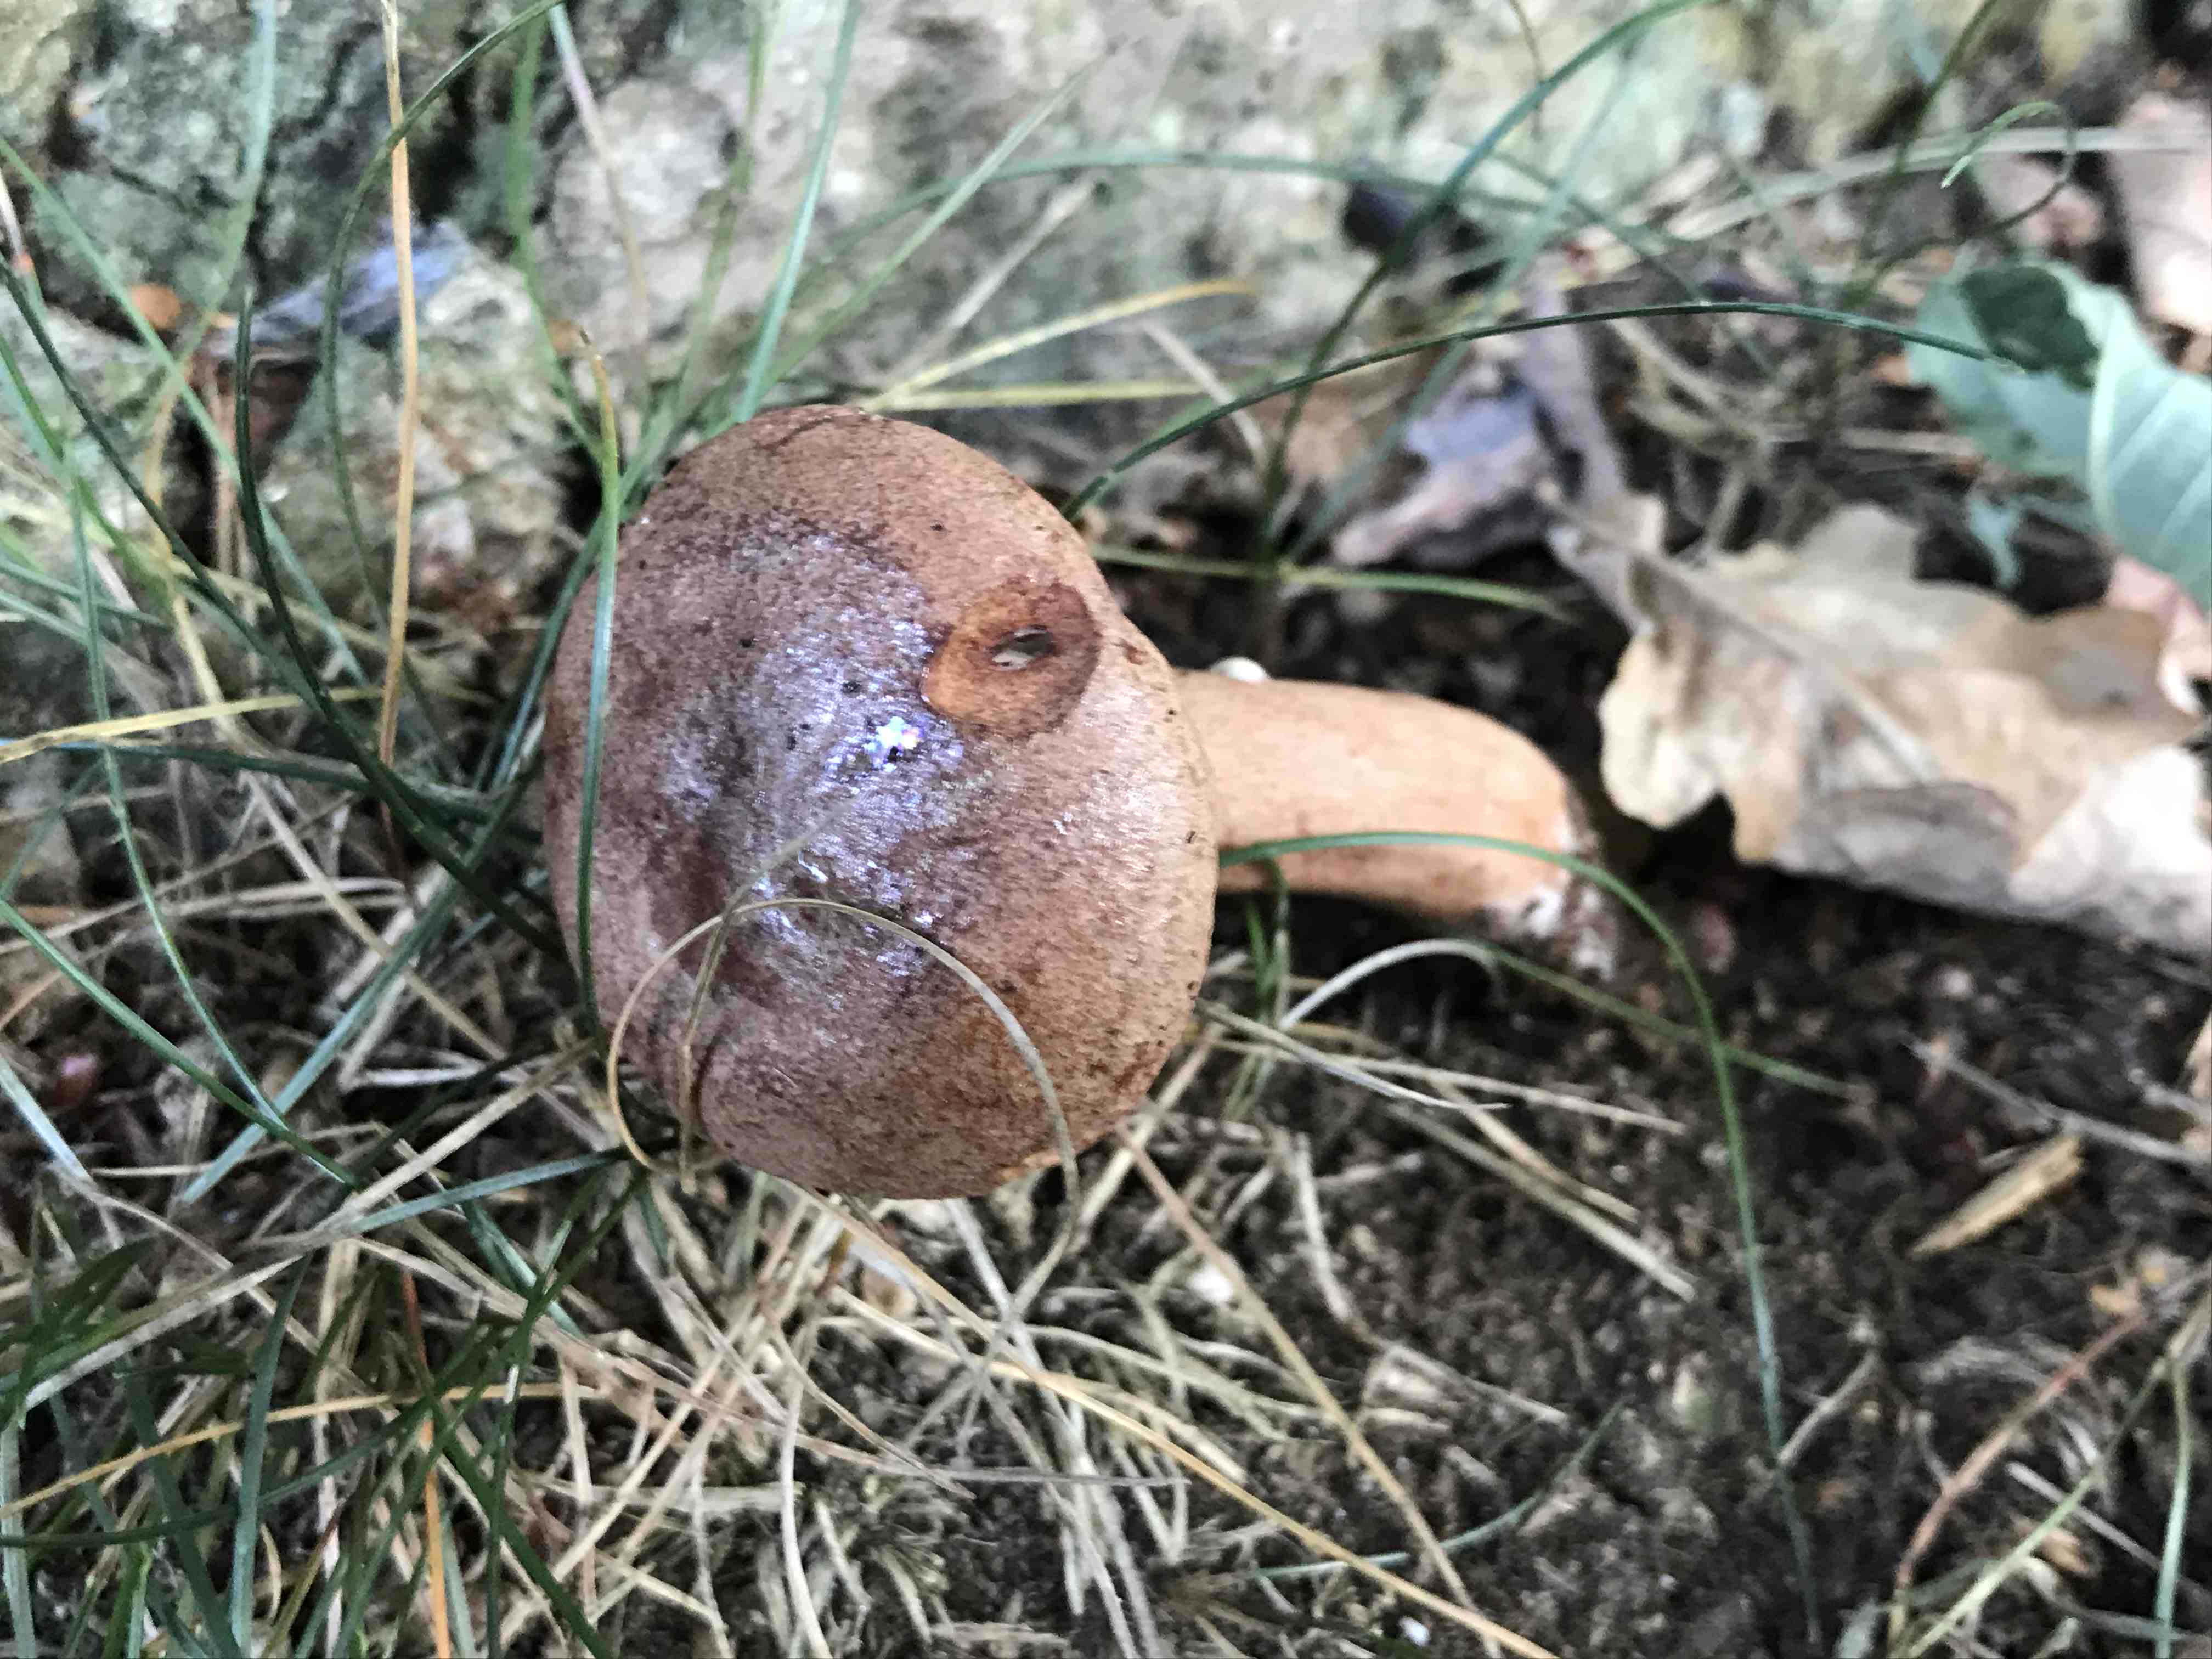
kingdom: Fungi
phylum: Basidiomycota
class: Agaricomycetes
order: Russulales
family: Russulaceae
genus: Lactarius
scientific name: Lactarius quietus
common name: ege-mælkehat
